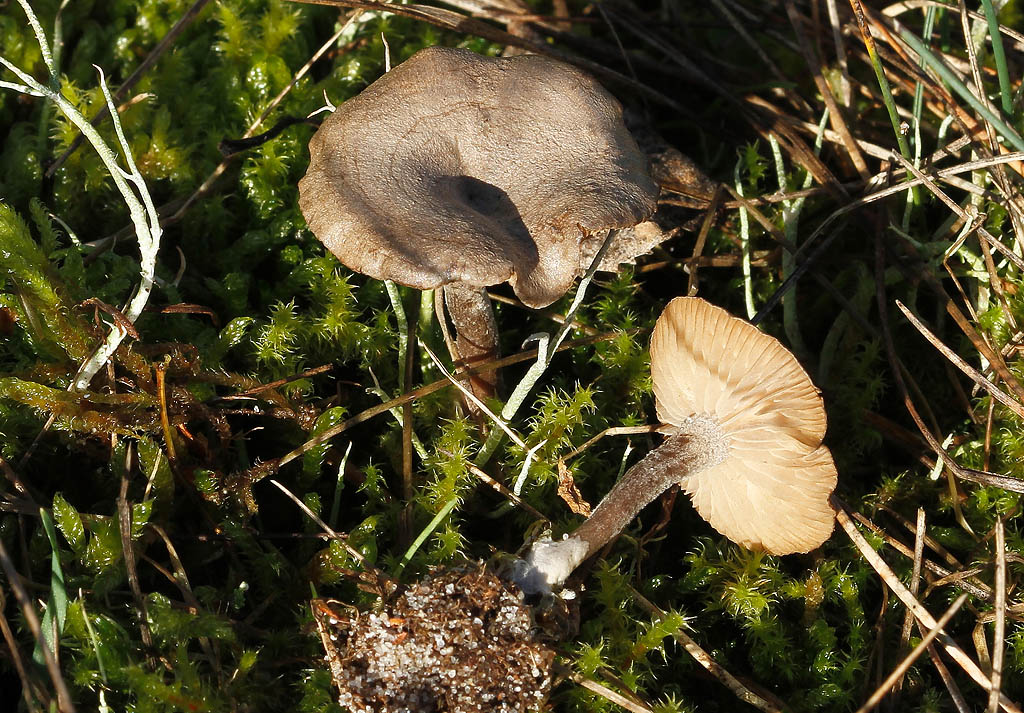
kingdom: Fungi
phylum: Basidiomycota
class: Agaricomycetes
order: Agaricales
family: Entolomataceae
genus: Clitopilus
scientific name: Clitopilus caelatus
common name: gråbrun troldhat
